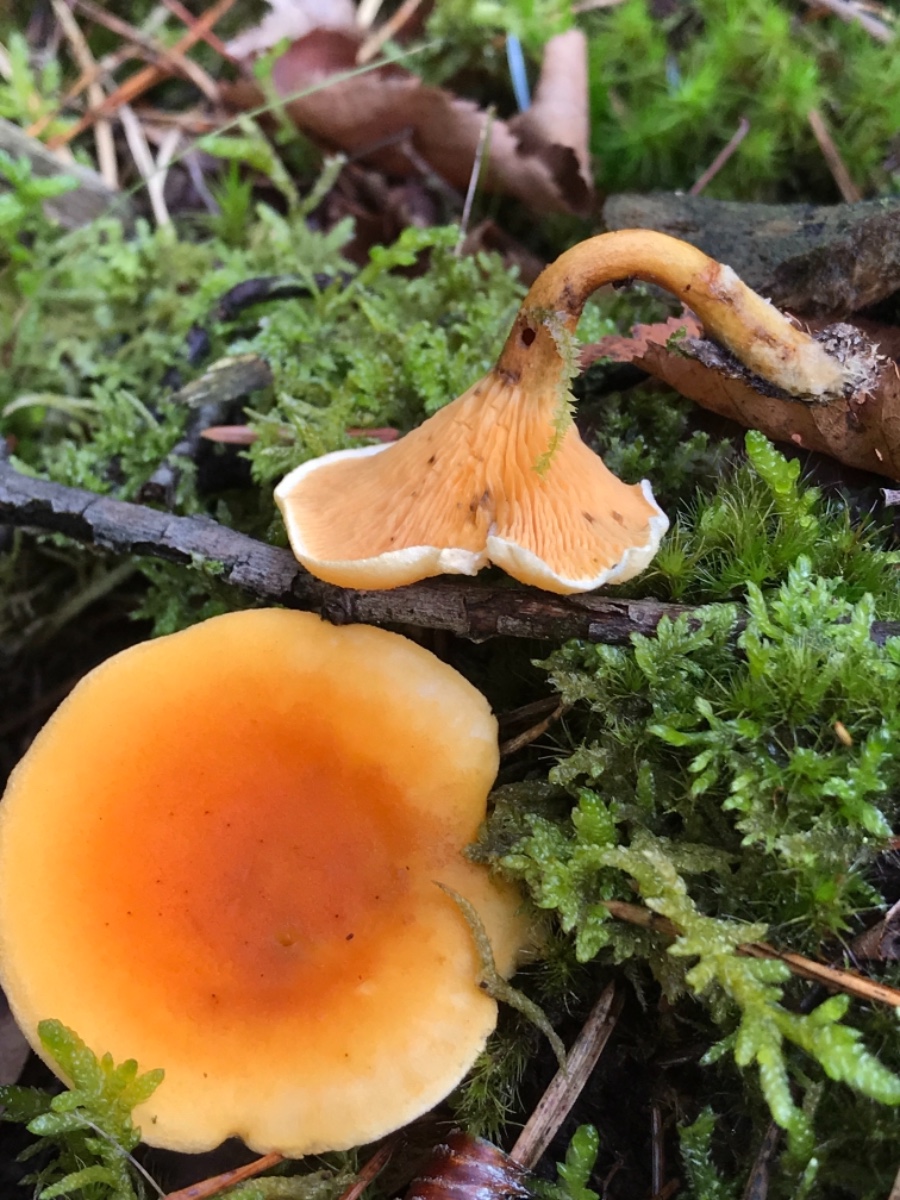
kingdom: Fungi
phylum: Basidiomycota
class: Agaricomycetes
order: Boletales
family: Hygrophoropsidaceae
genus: Hygrophoropsis
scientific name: Hygrophoropsis aurantiaca
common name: almindelig orangekantarel
